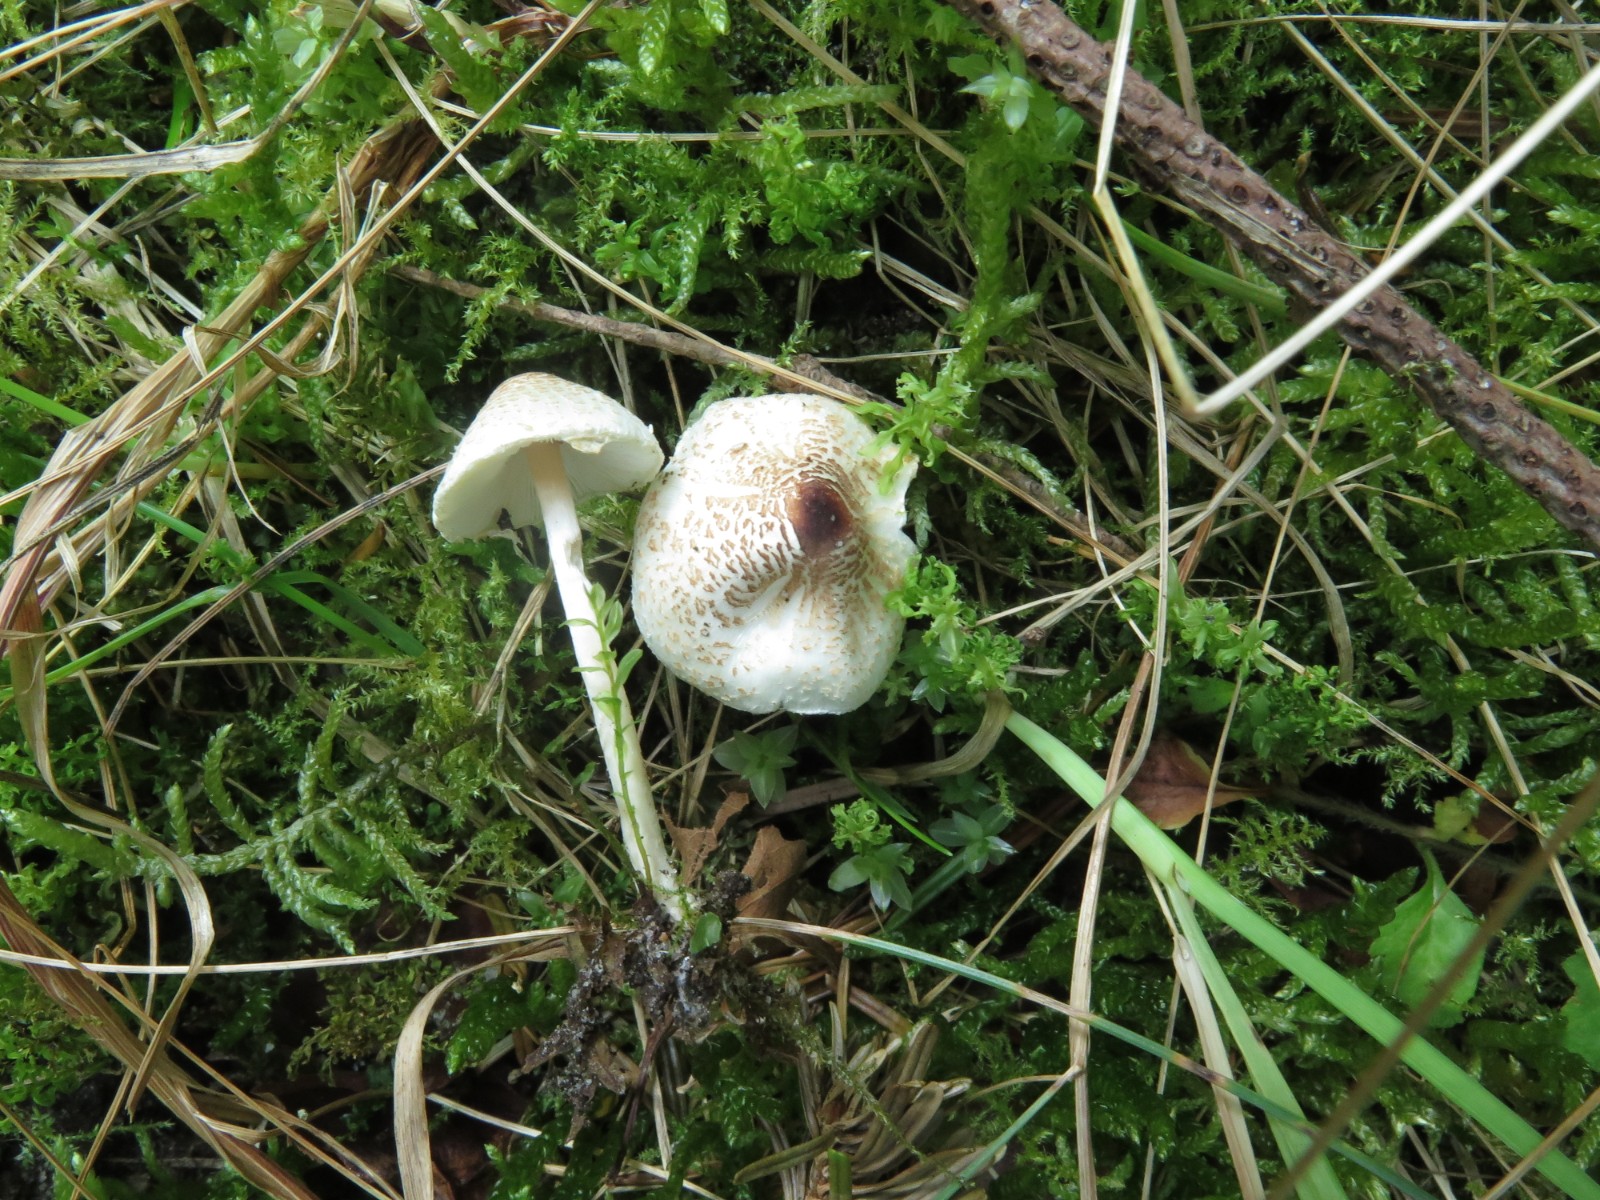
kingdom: Fungi
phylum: Basidiomycota
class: Agaricomycetes
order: Agaricales
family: Agaricaceae
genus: Lepiota
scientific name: Lepiota cristata
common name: stinkende parasolhat
